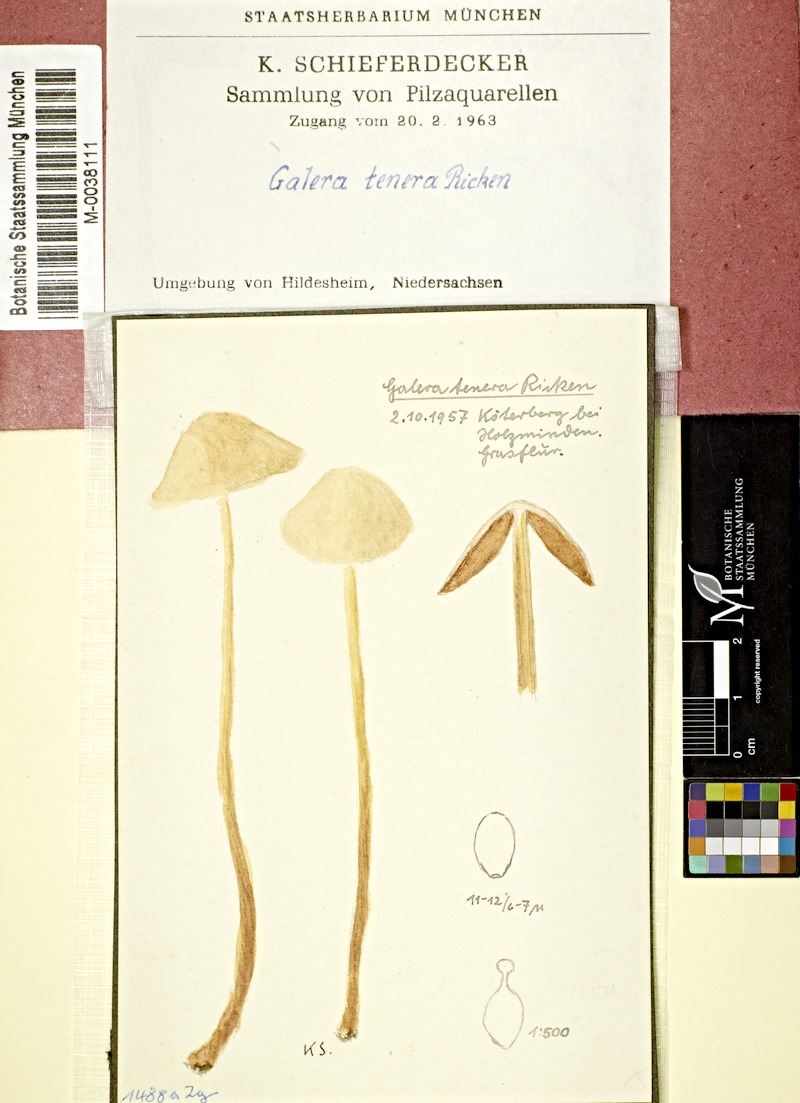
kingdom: Fungi
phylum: Basidiomycota
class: Agaricomycetes
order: Agaricales
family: Bolbitiaceae
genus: Conocybe
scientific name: Conocybe tenera
